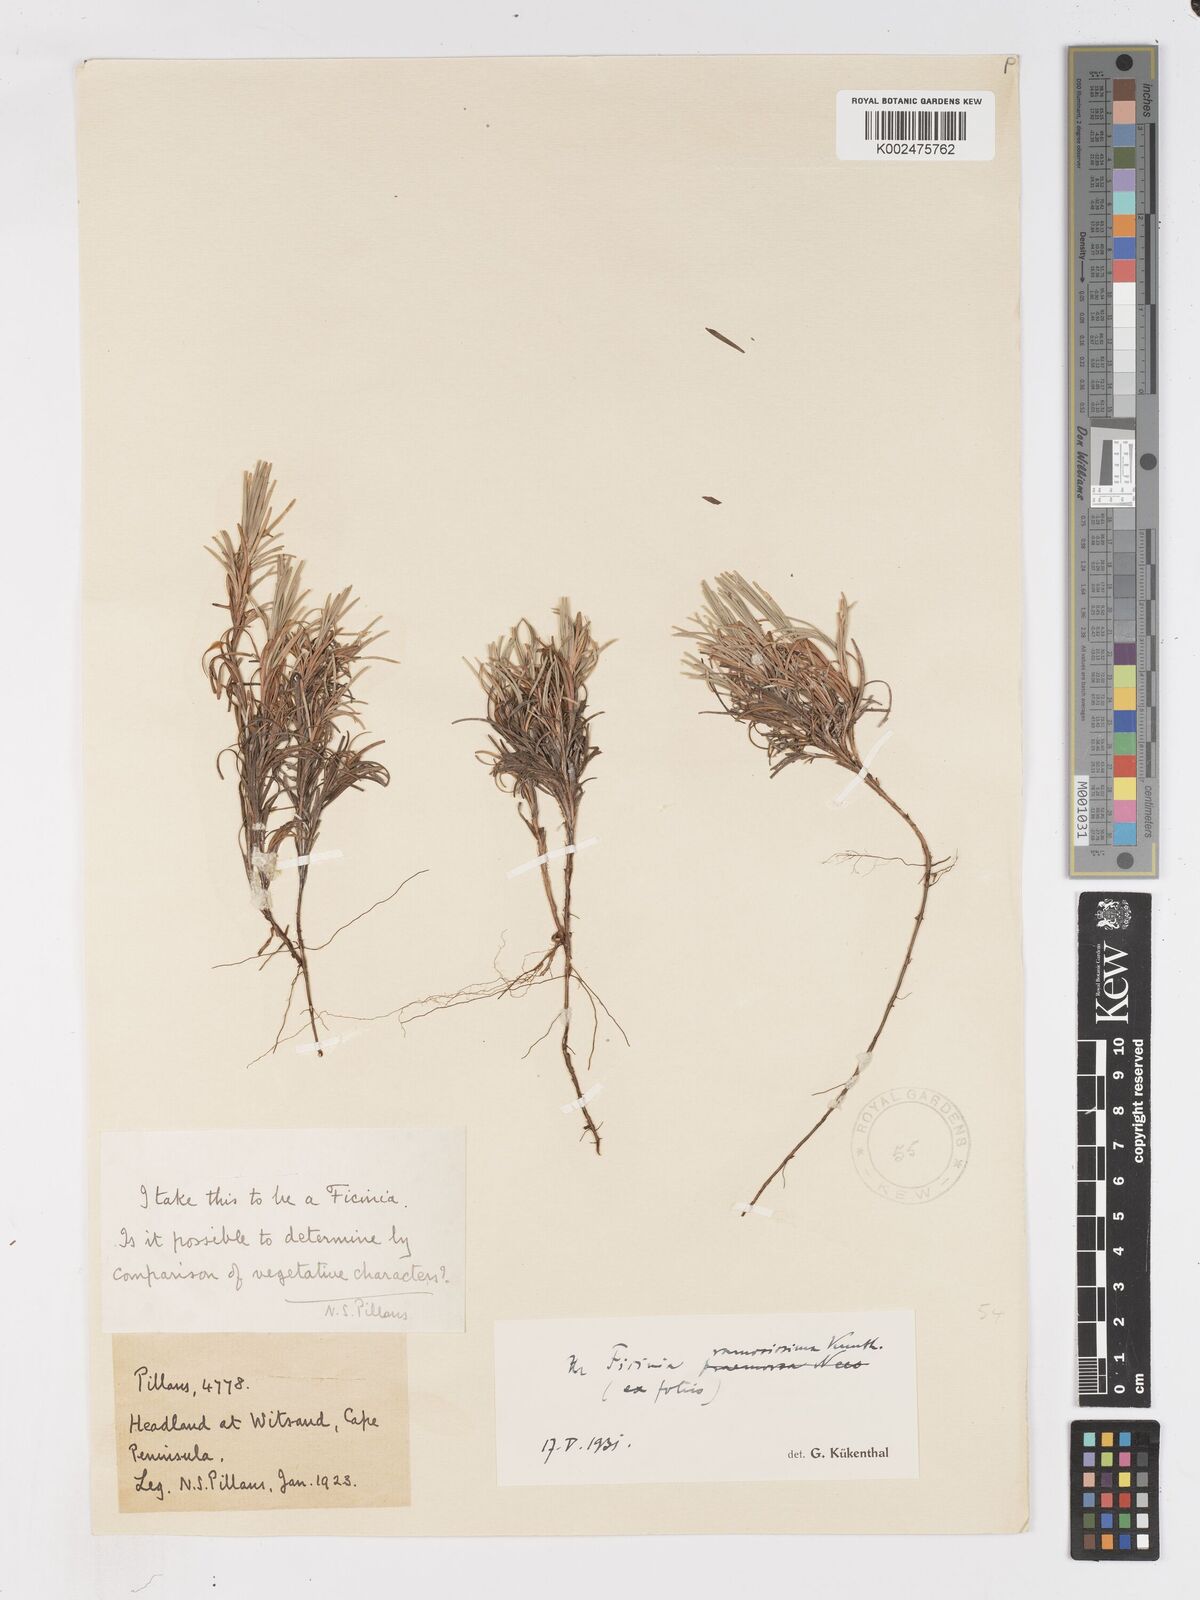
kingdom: Plantae
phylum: Tracheophyta
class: Liliopsida
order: Poales
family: Cyperaceae
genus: Ficinia
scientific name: Ficinia ramosissima
